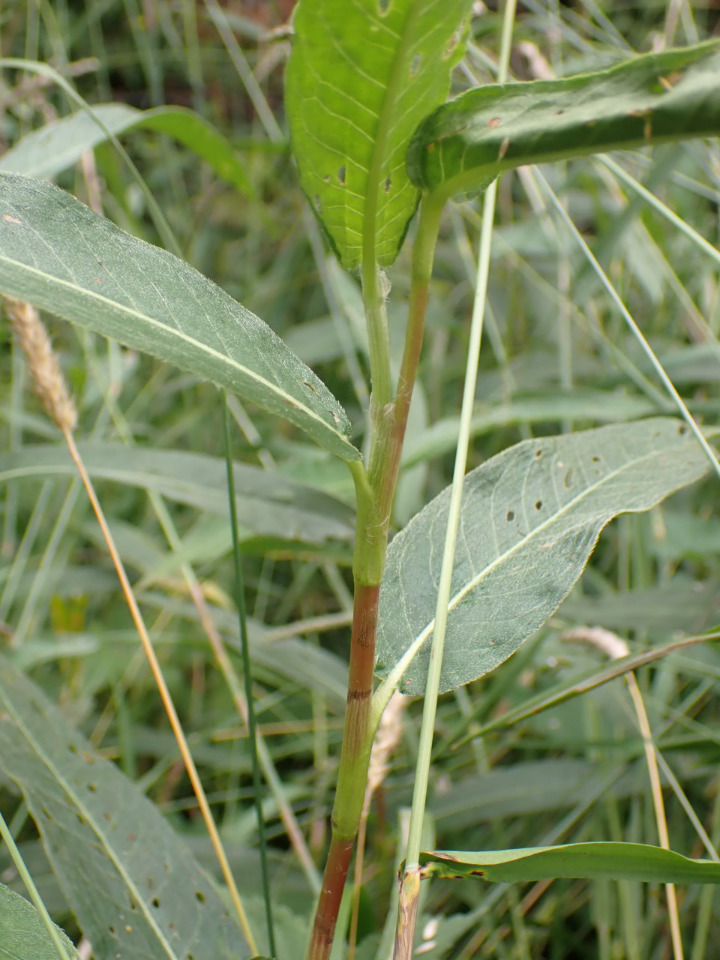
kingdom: Plantae
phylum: Tracheophyta
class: Magnoliopsida
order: Caryophyllales
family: Polygonaceae
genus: Persicaria
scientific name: Persicaria amphibia
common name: Vand-pileurt
